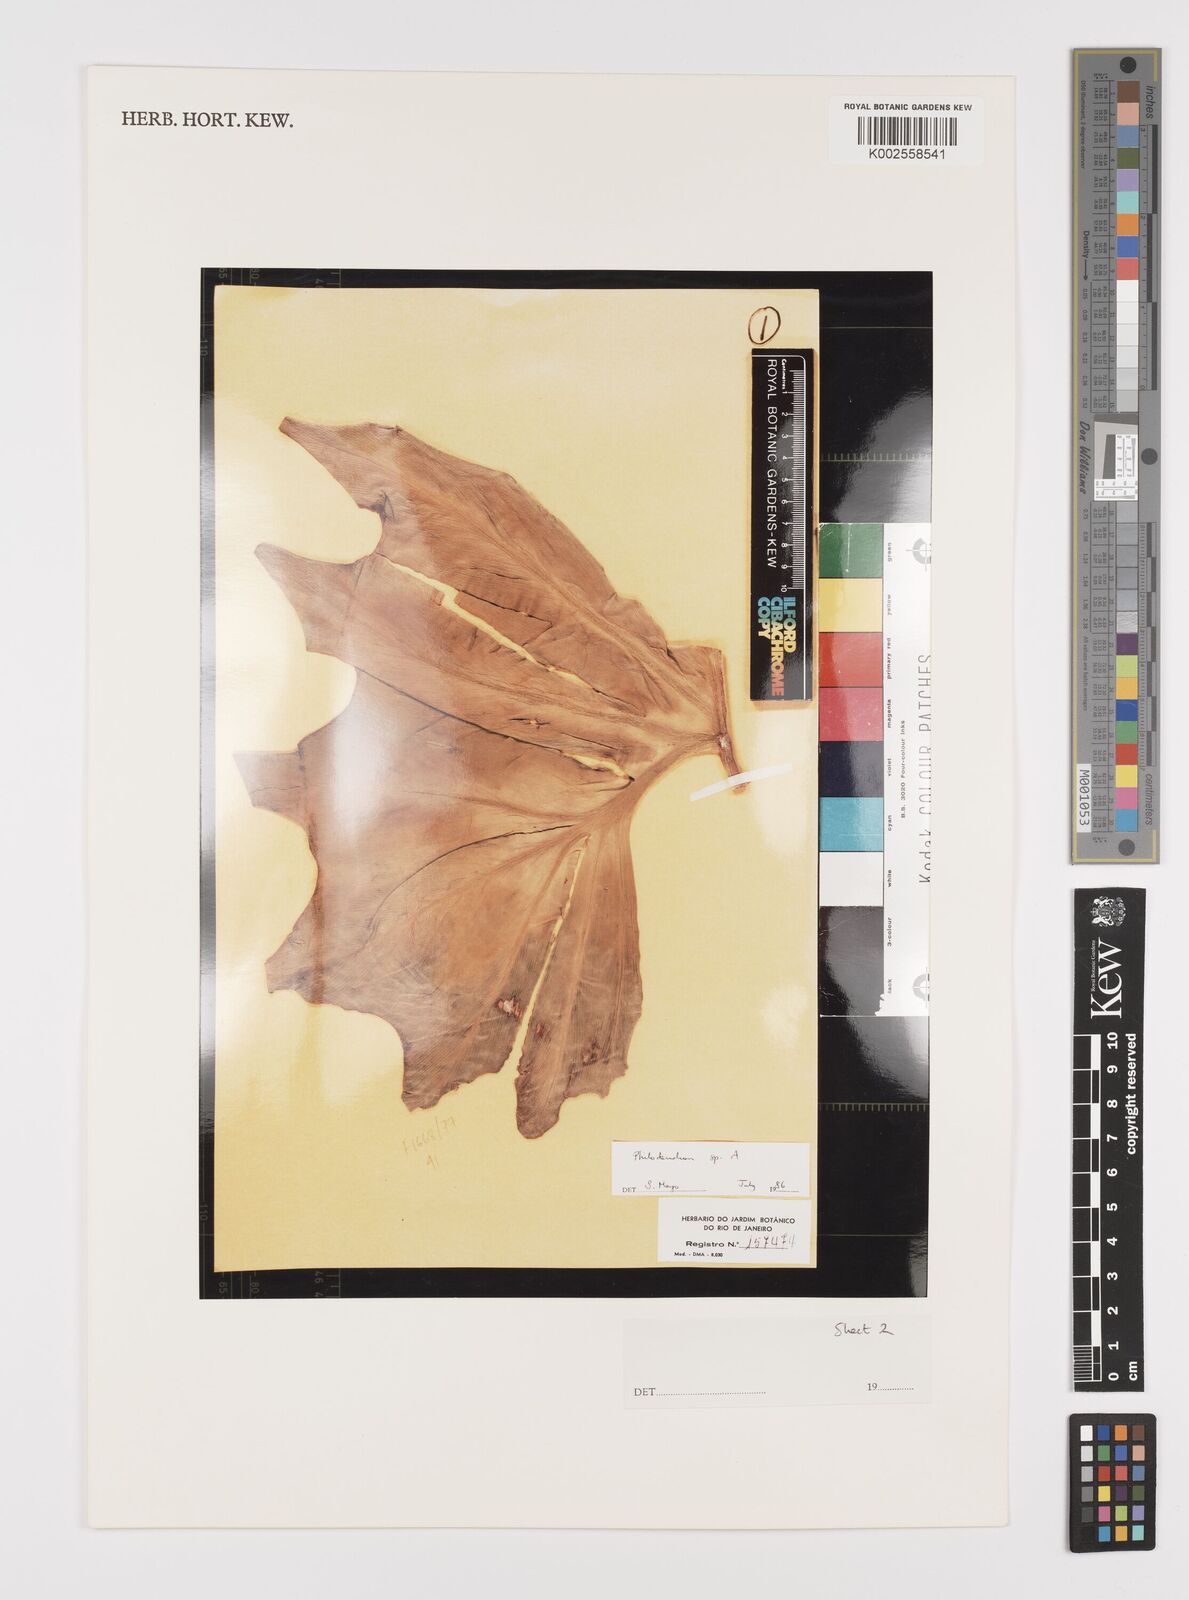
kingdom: Plantae
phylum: Tracheophyta
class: Liliopsida
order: Alismatales
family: Araceae
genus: Philodendron
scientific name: Philodendron
